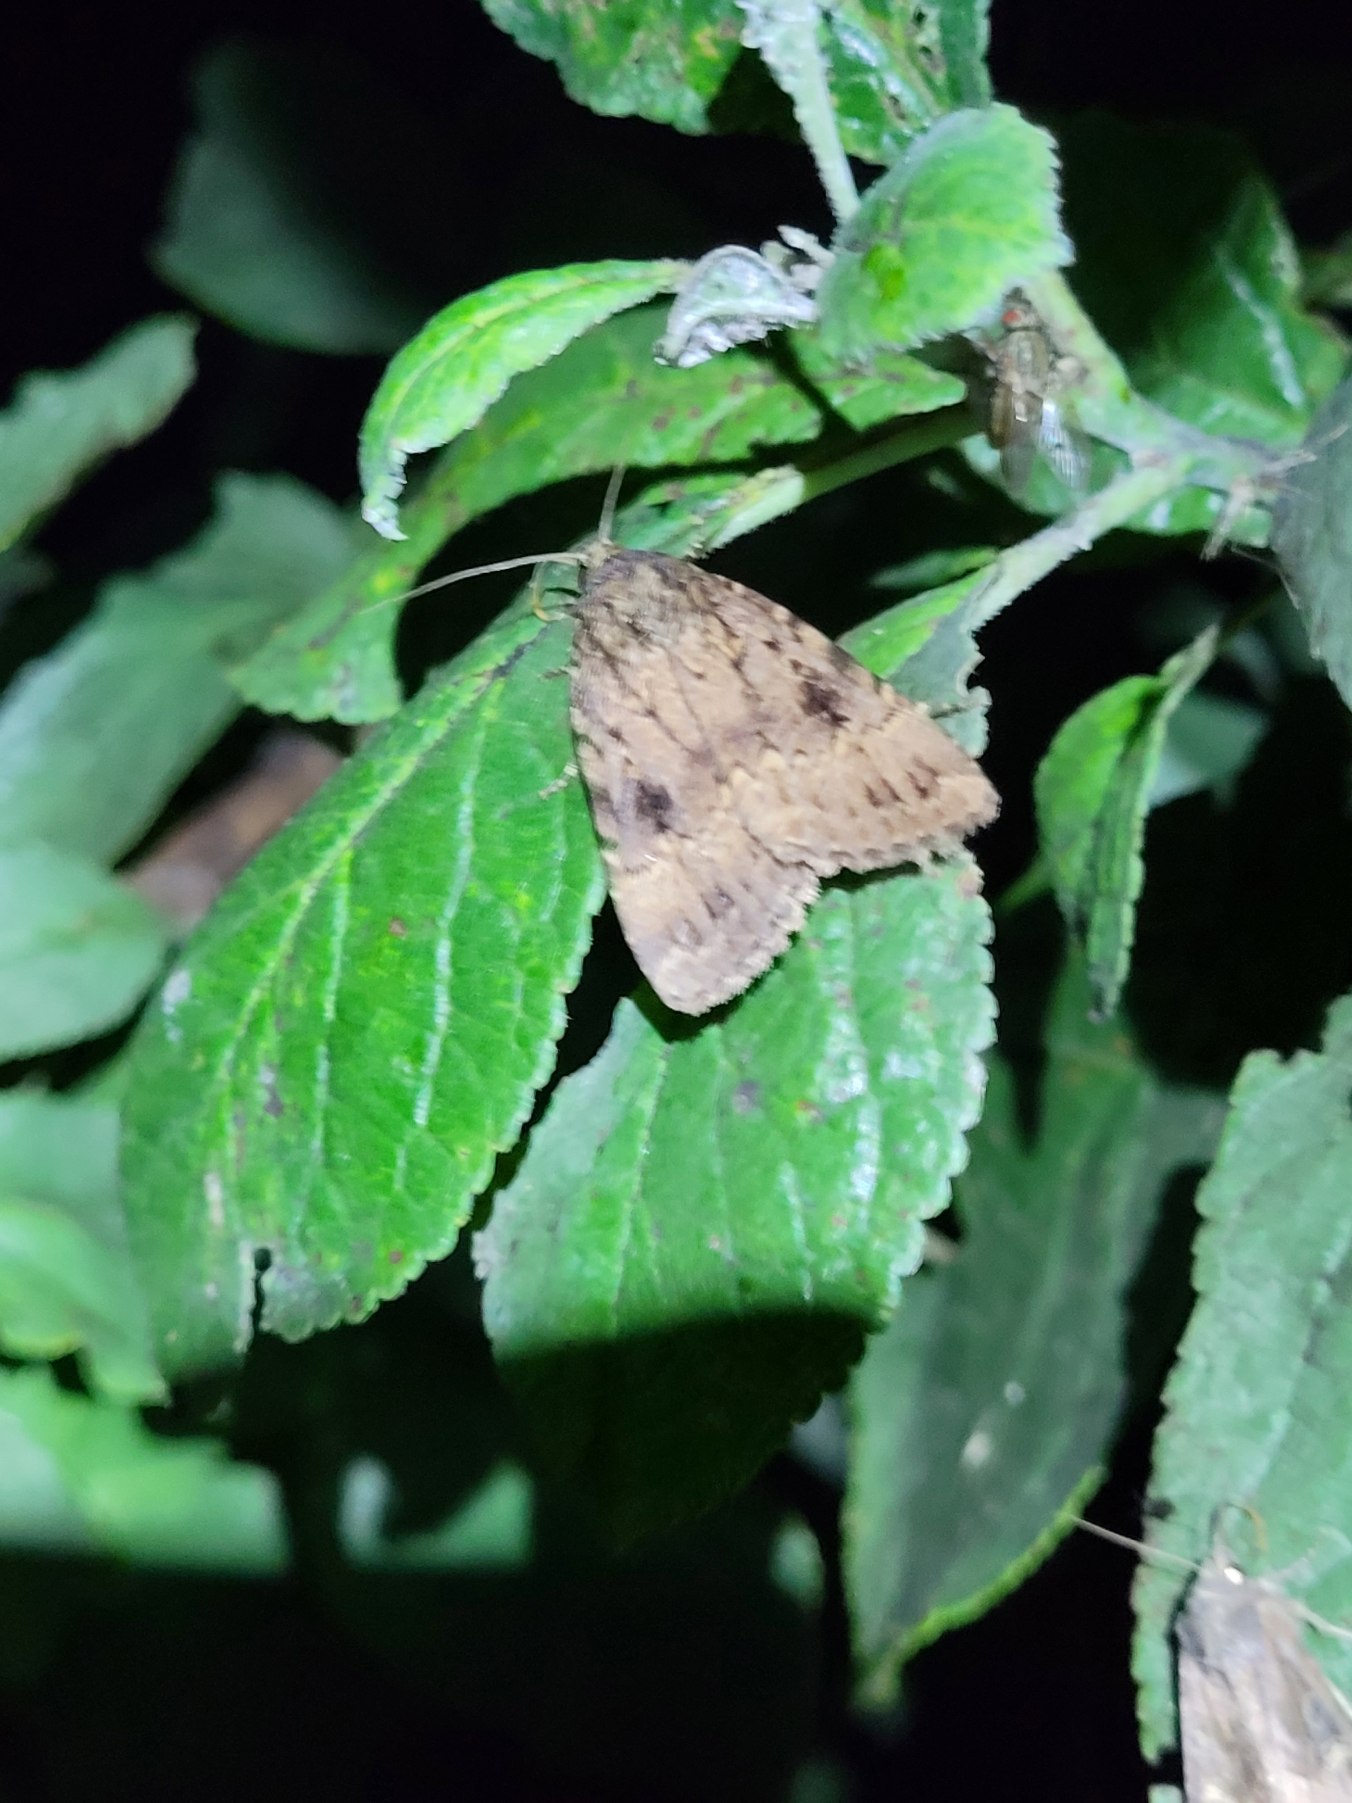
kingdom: Animalia
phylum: Arthropoda
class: Insecta
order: Lepidoptera
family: Noctuidae
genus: Amphipyra
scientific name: Amphipyra pyramidea
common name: Pyramideugle
